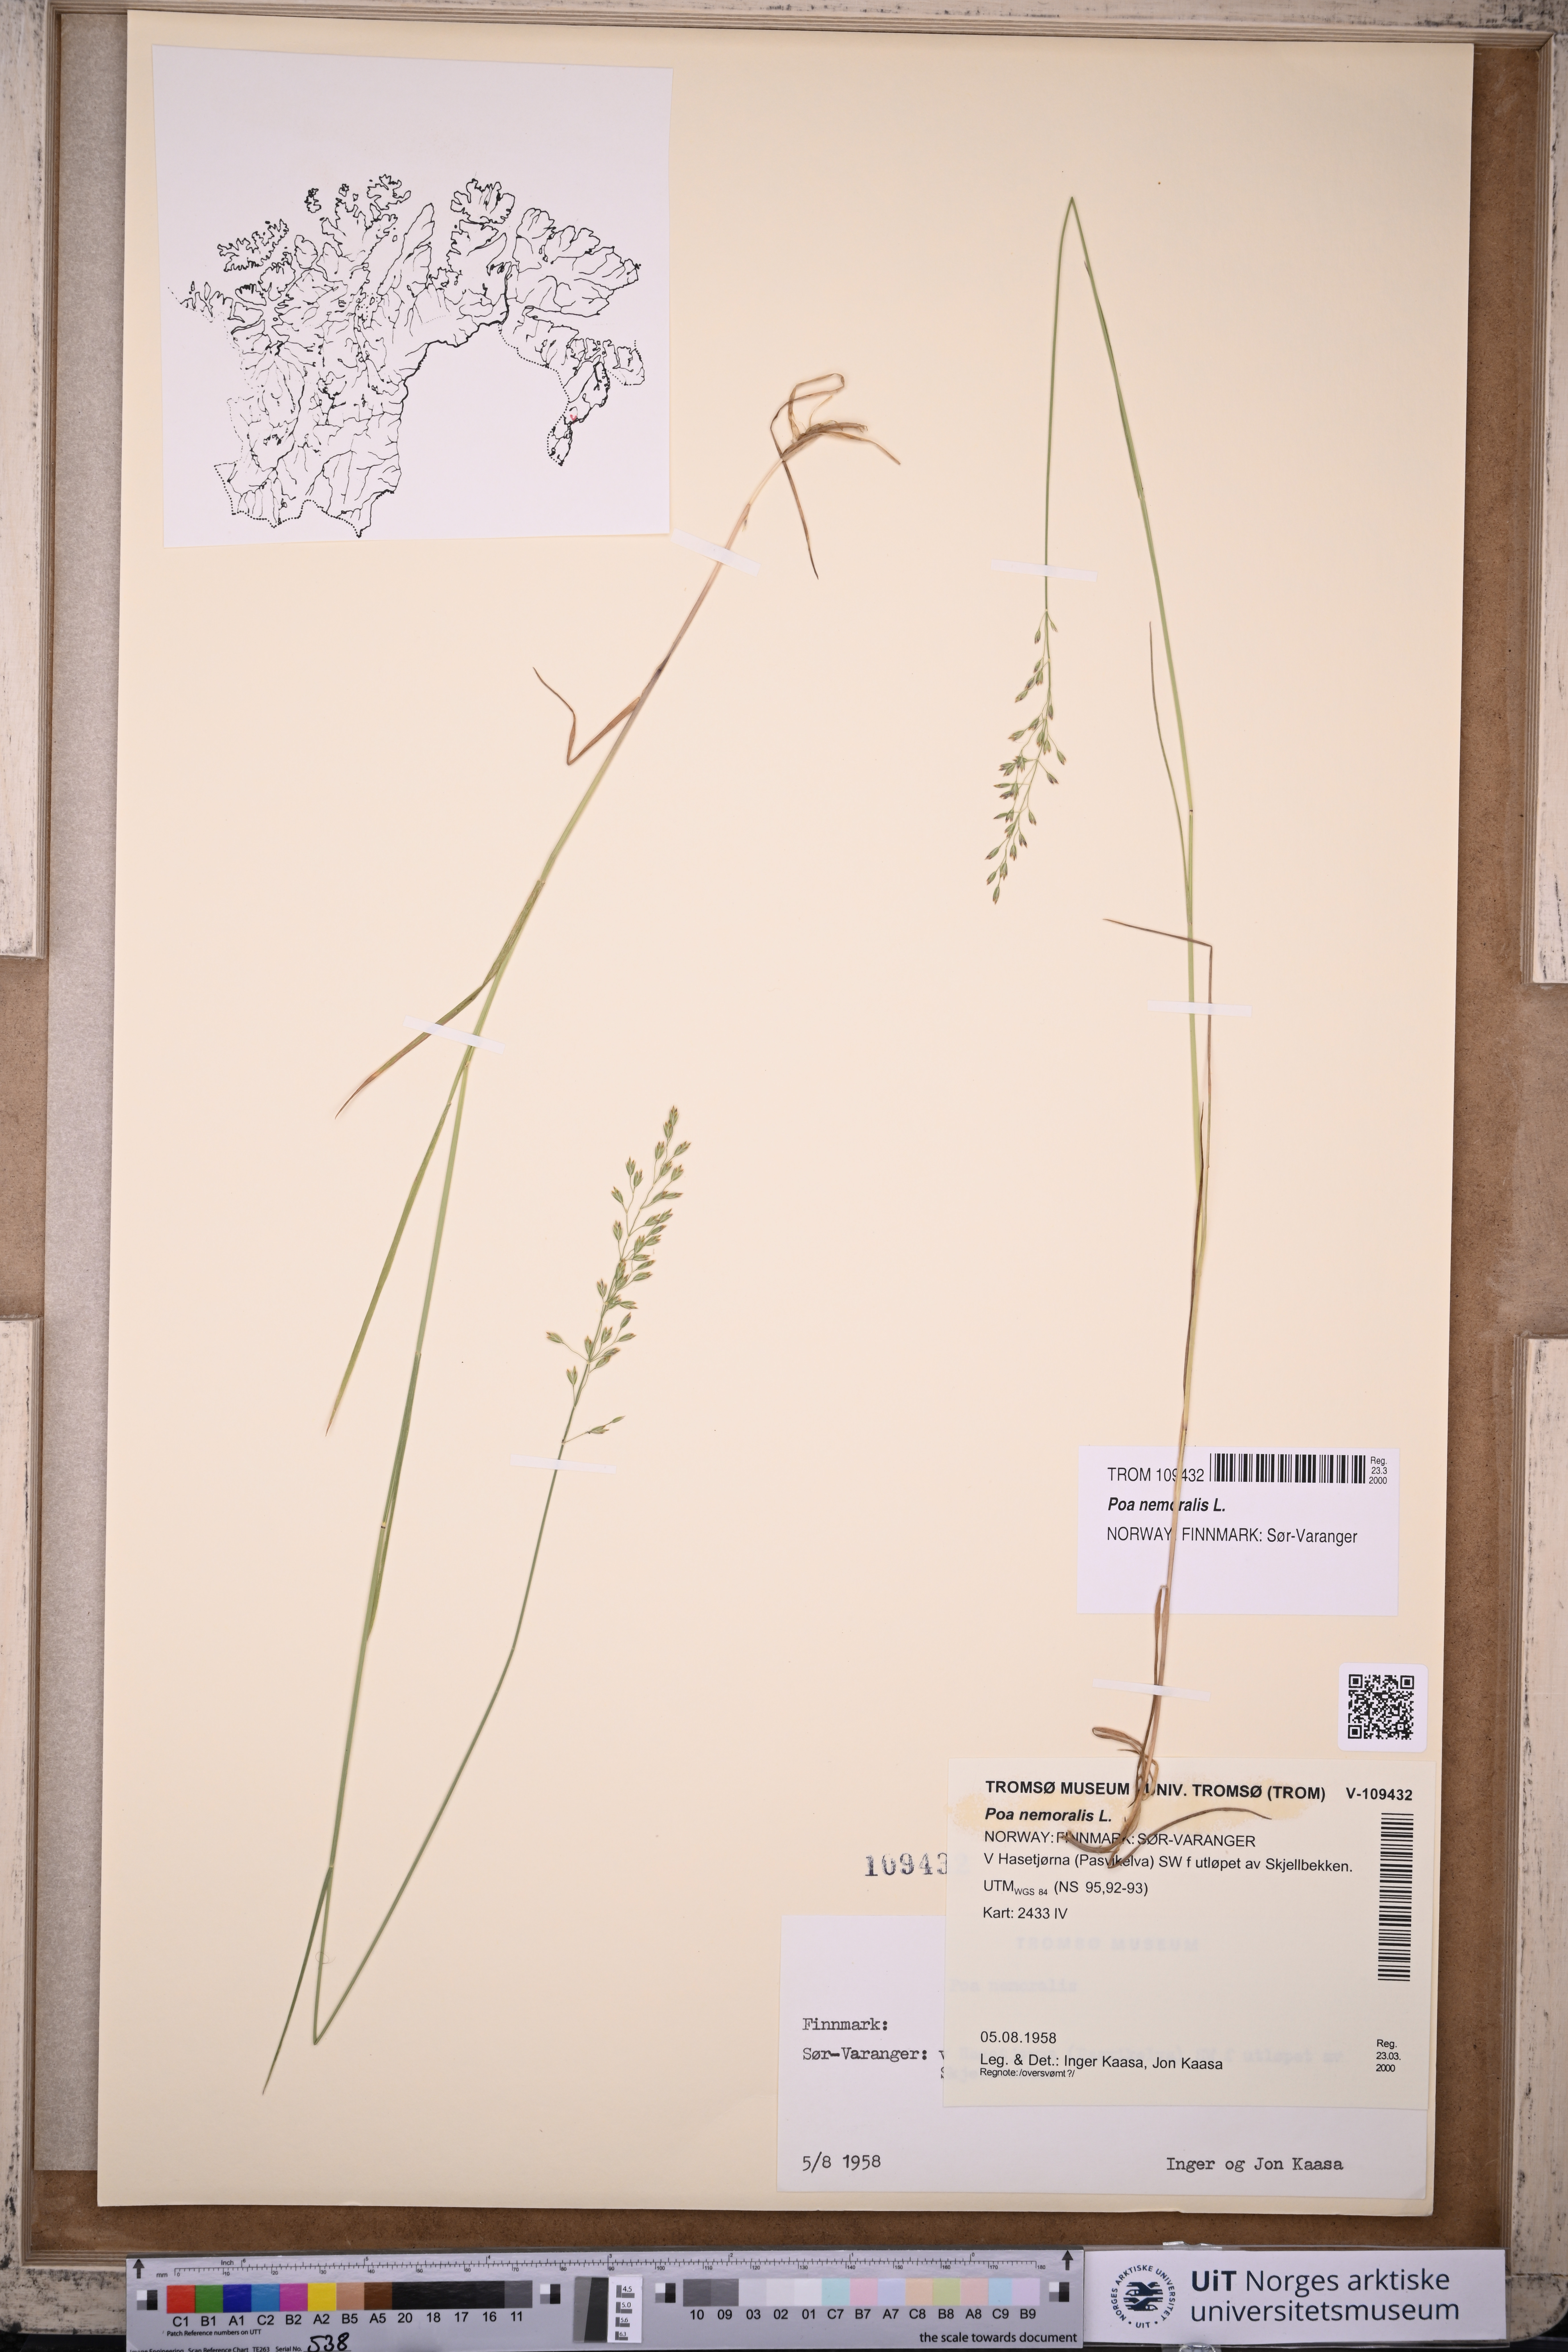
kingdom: Plantae
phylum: Tracheophyta
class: Liliopsida
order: Poales
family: Poaceae
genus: Poa
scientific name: Poa nemoralis
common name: Wood bluegrass
